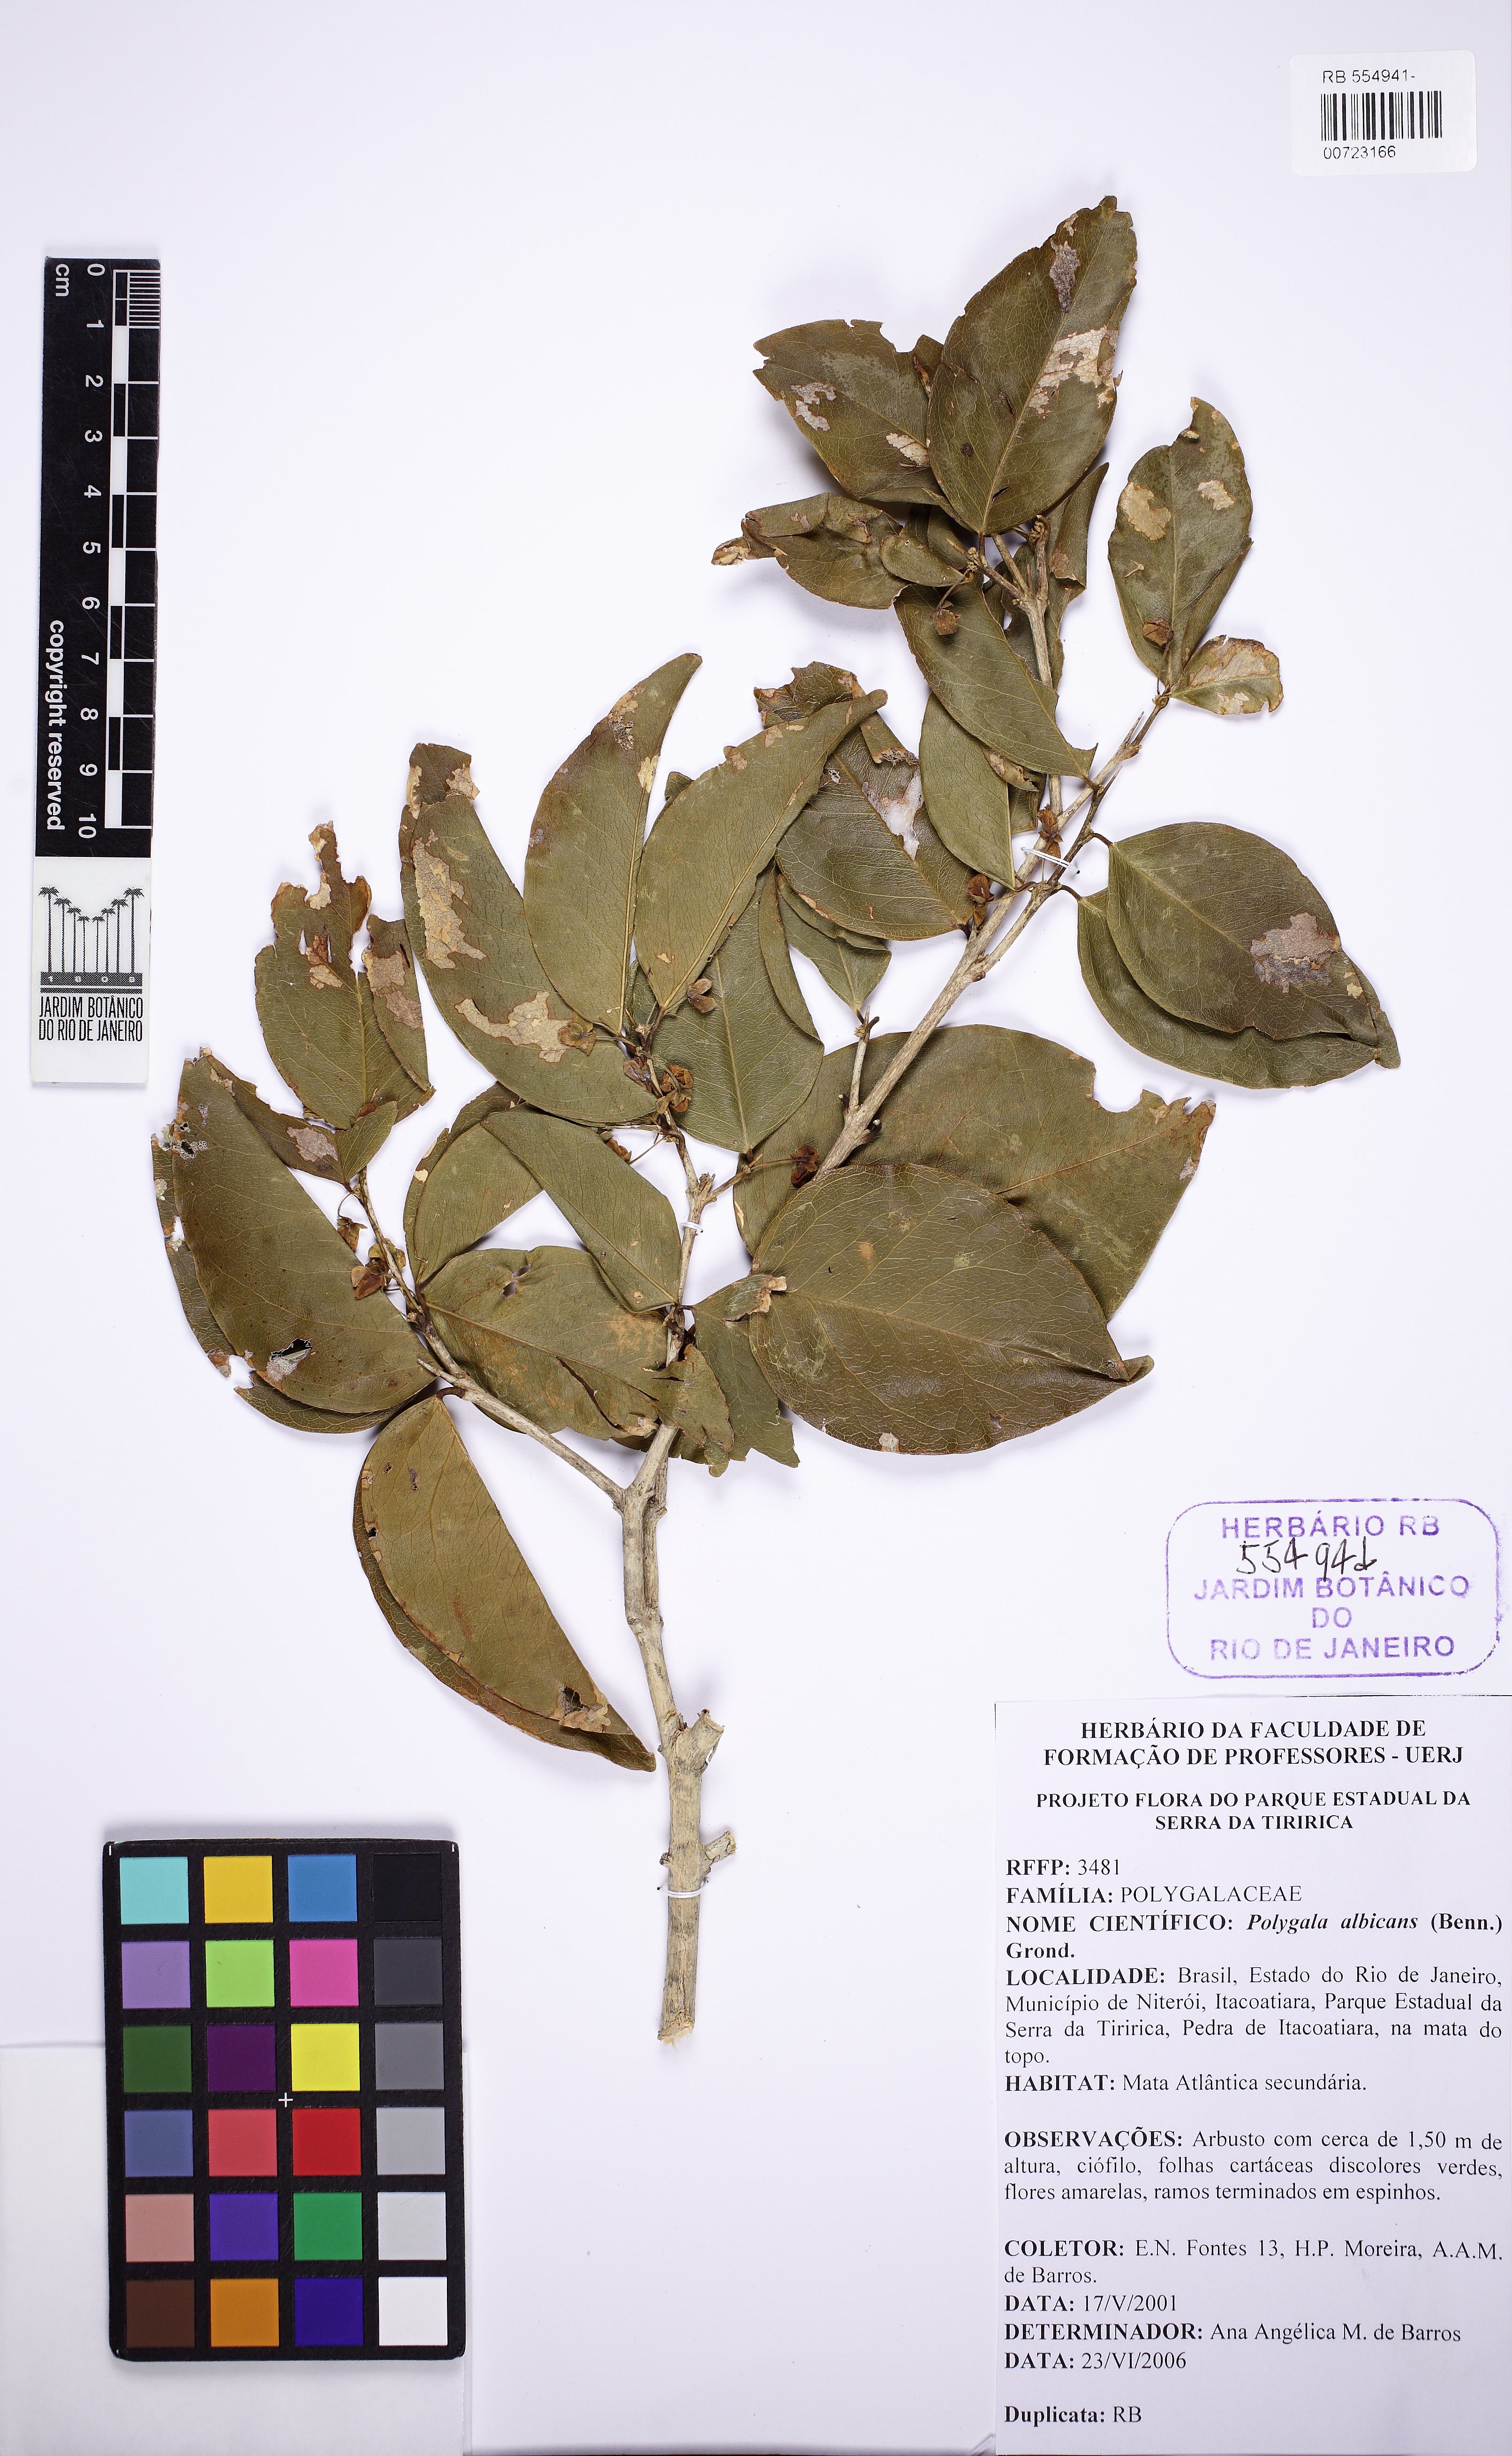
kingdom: Plantae
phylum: Tracheophyta
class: Magnoliopsida
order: Fabales
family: Polygalaceae
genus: Acanthocladus
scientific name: Acanthocladus dichromus
